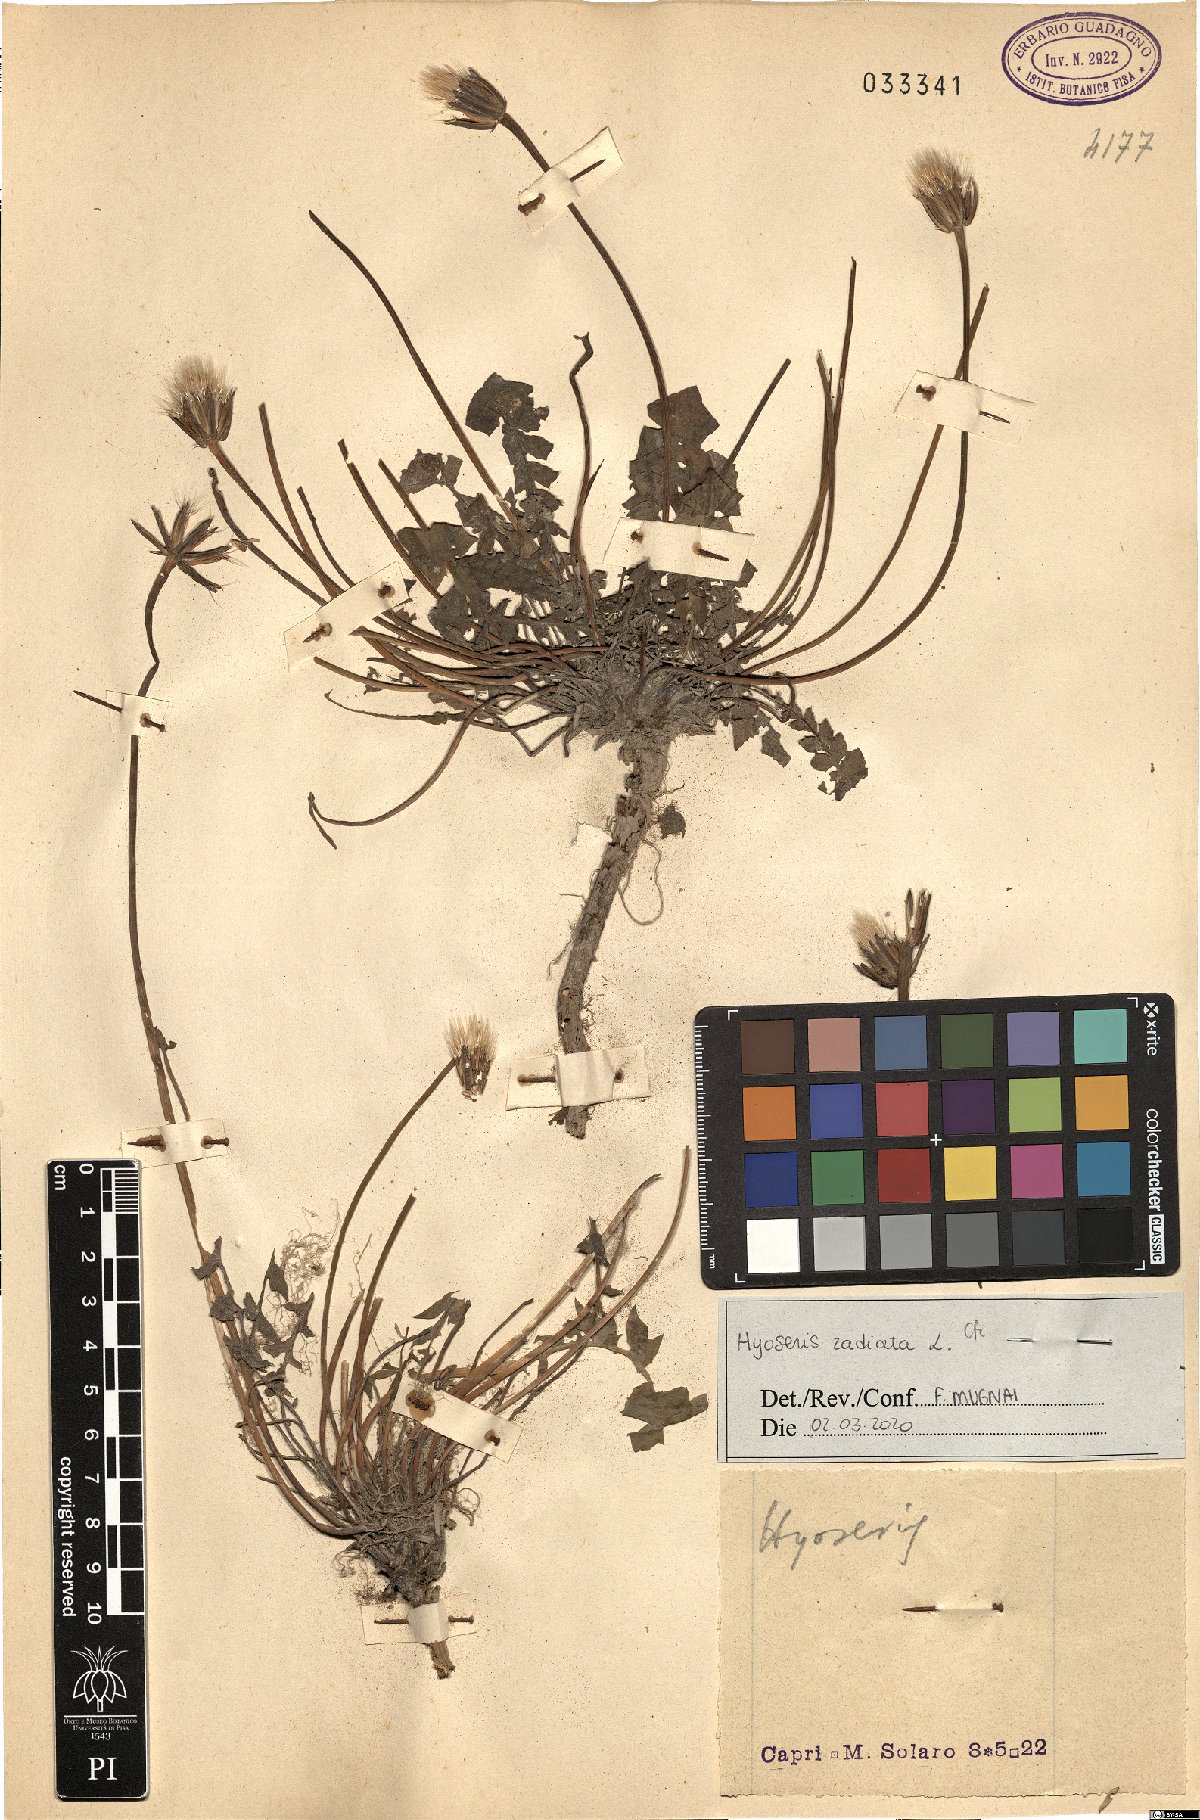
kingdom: Plantae
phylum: Tracheophyta
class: Magnoliopsida
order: Asterales
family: Asteraceae
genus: Hyoseris
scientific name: Hyoseris radiata
